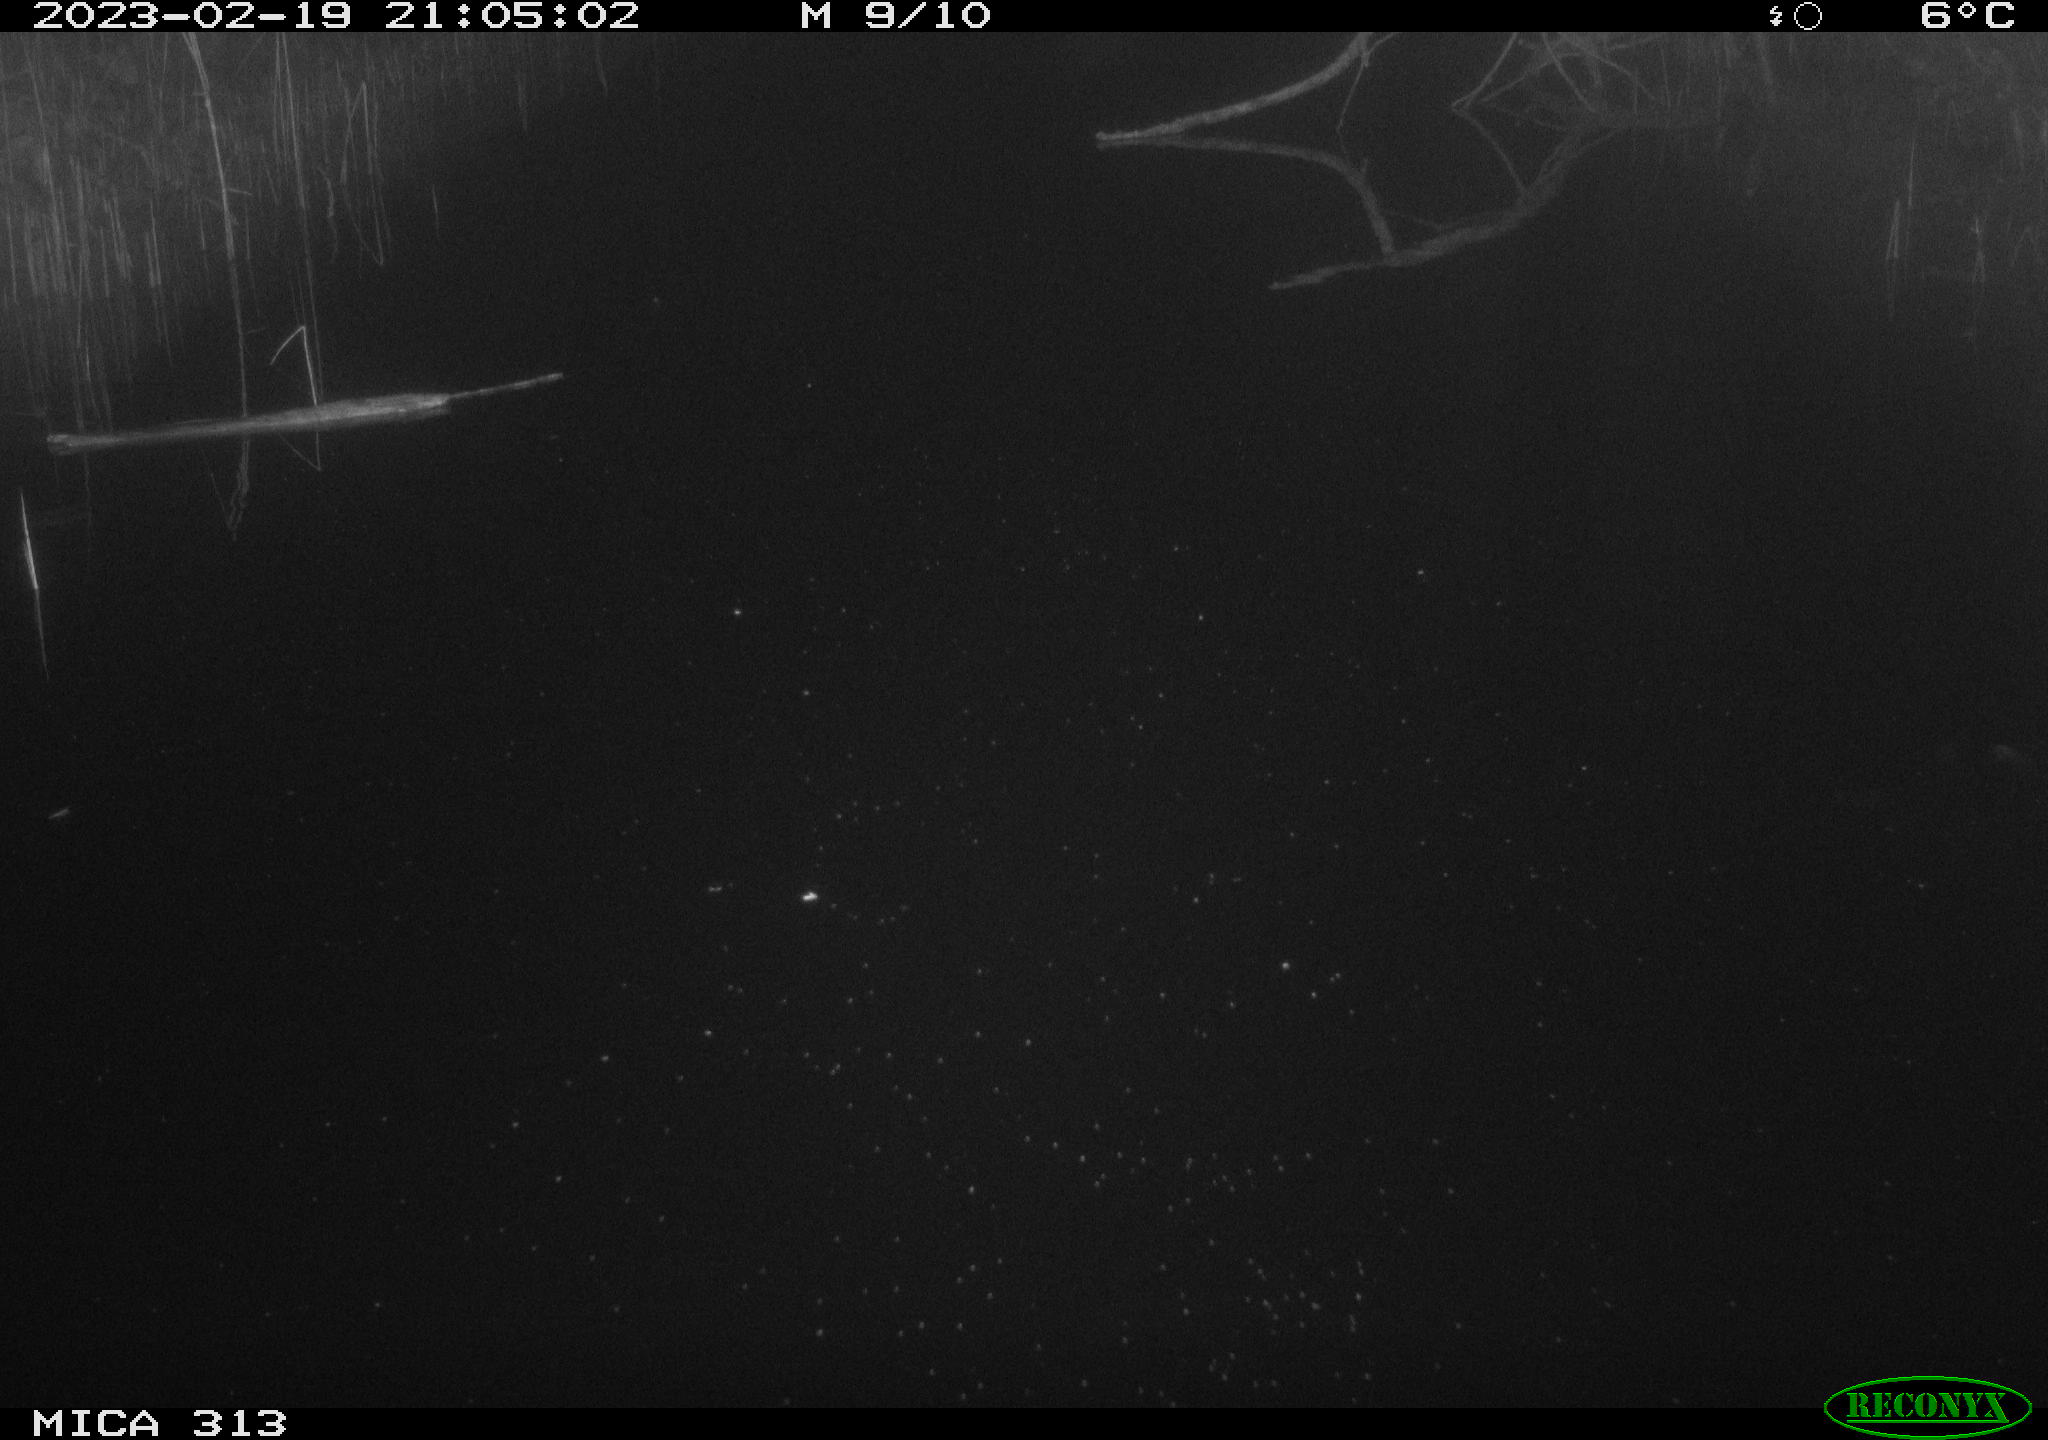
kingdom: Animalia
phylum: Chordata
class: Aves
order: Anseriformes
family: Anatidae
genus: Anas
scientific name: Anas
